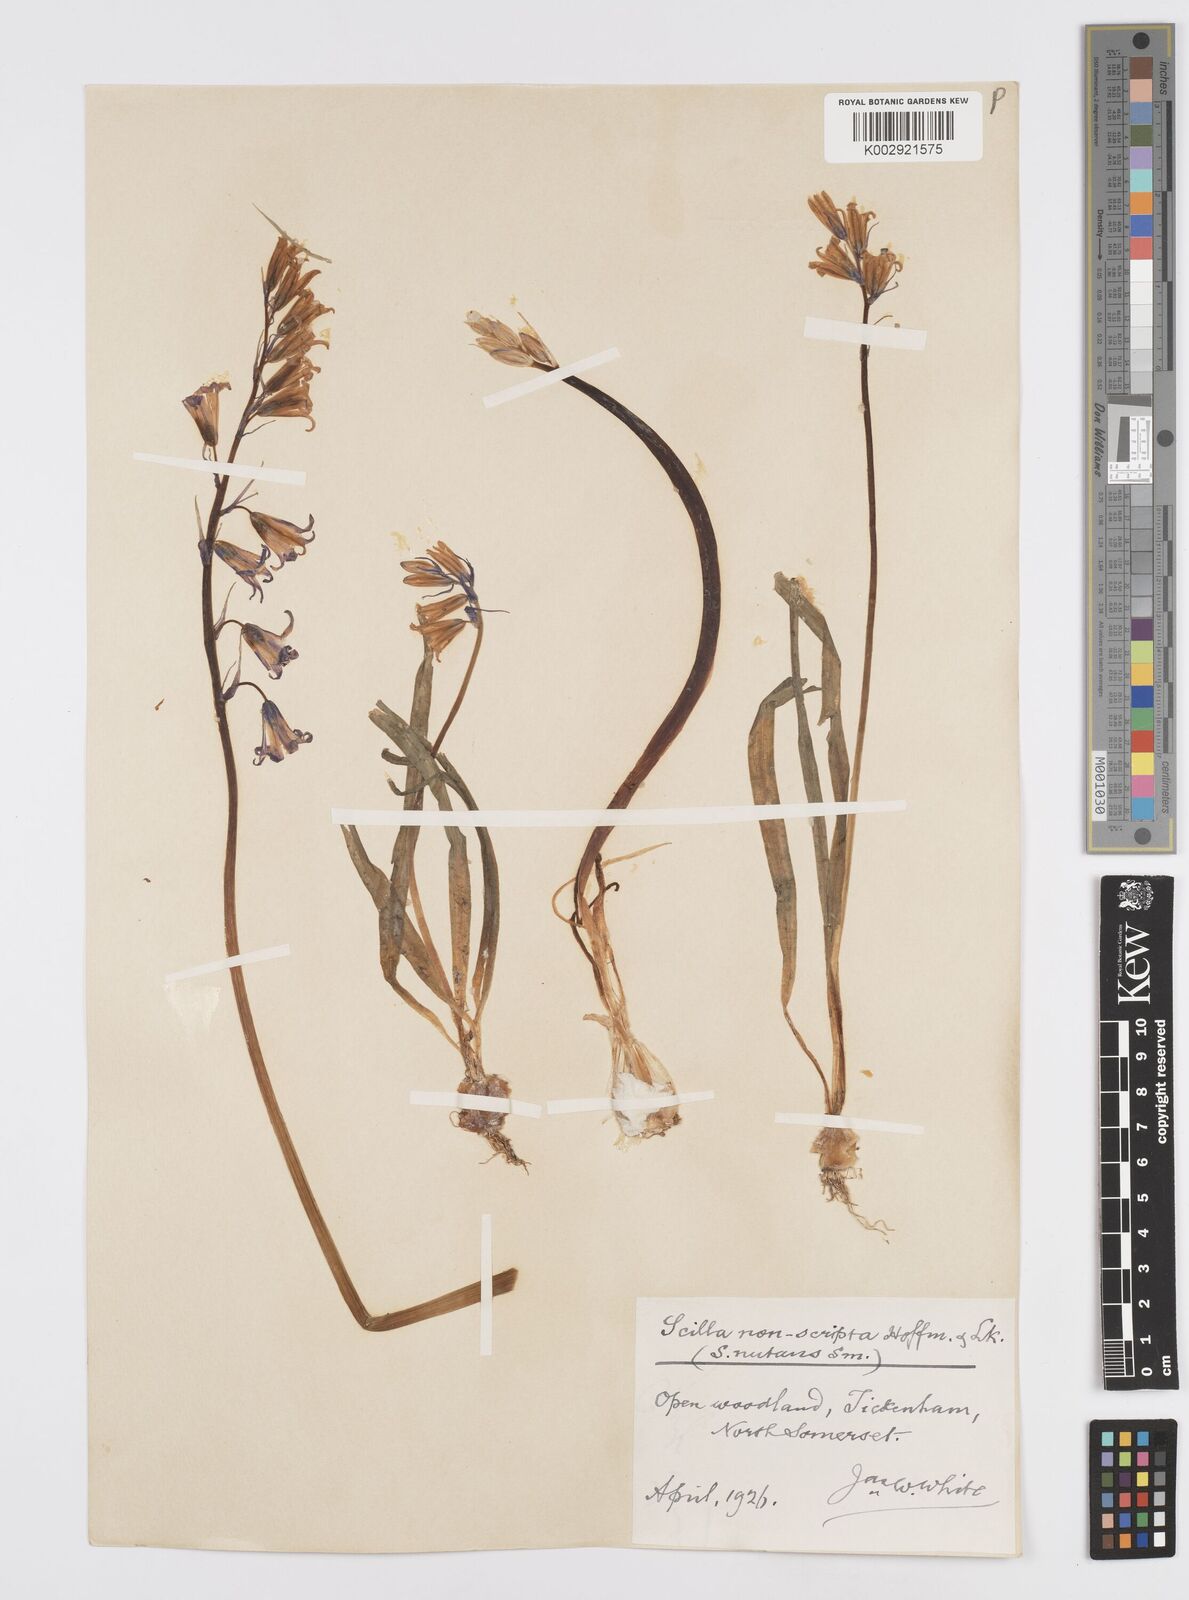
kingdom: Plantae
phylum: Tracheophyta
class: Liliopsida
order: Asparagales
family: Asparagaceae
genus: Hyacinthoides
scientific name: Hyacinthoides non-scripta
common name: Bluebell
